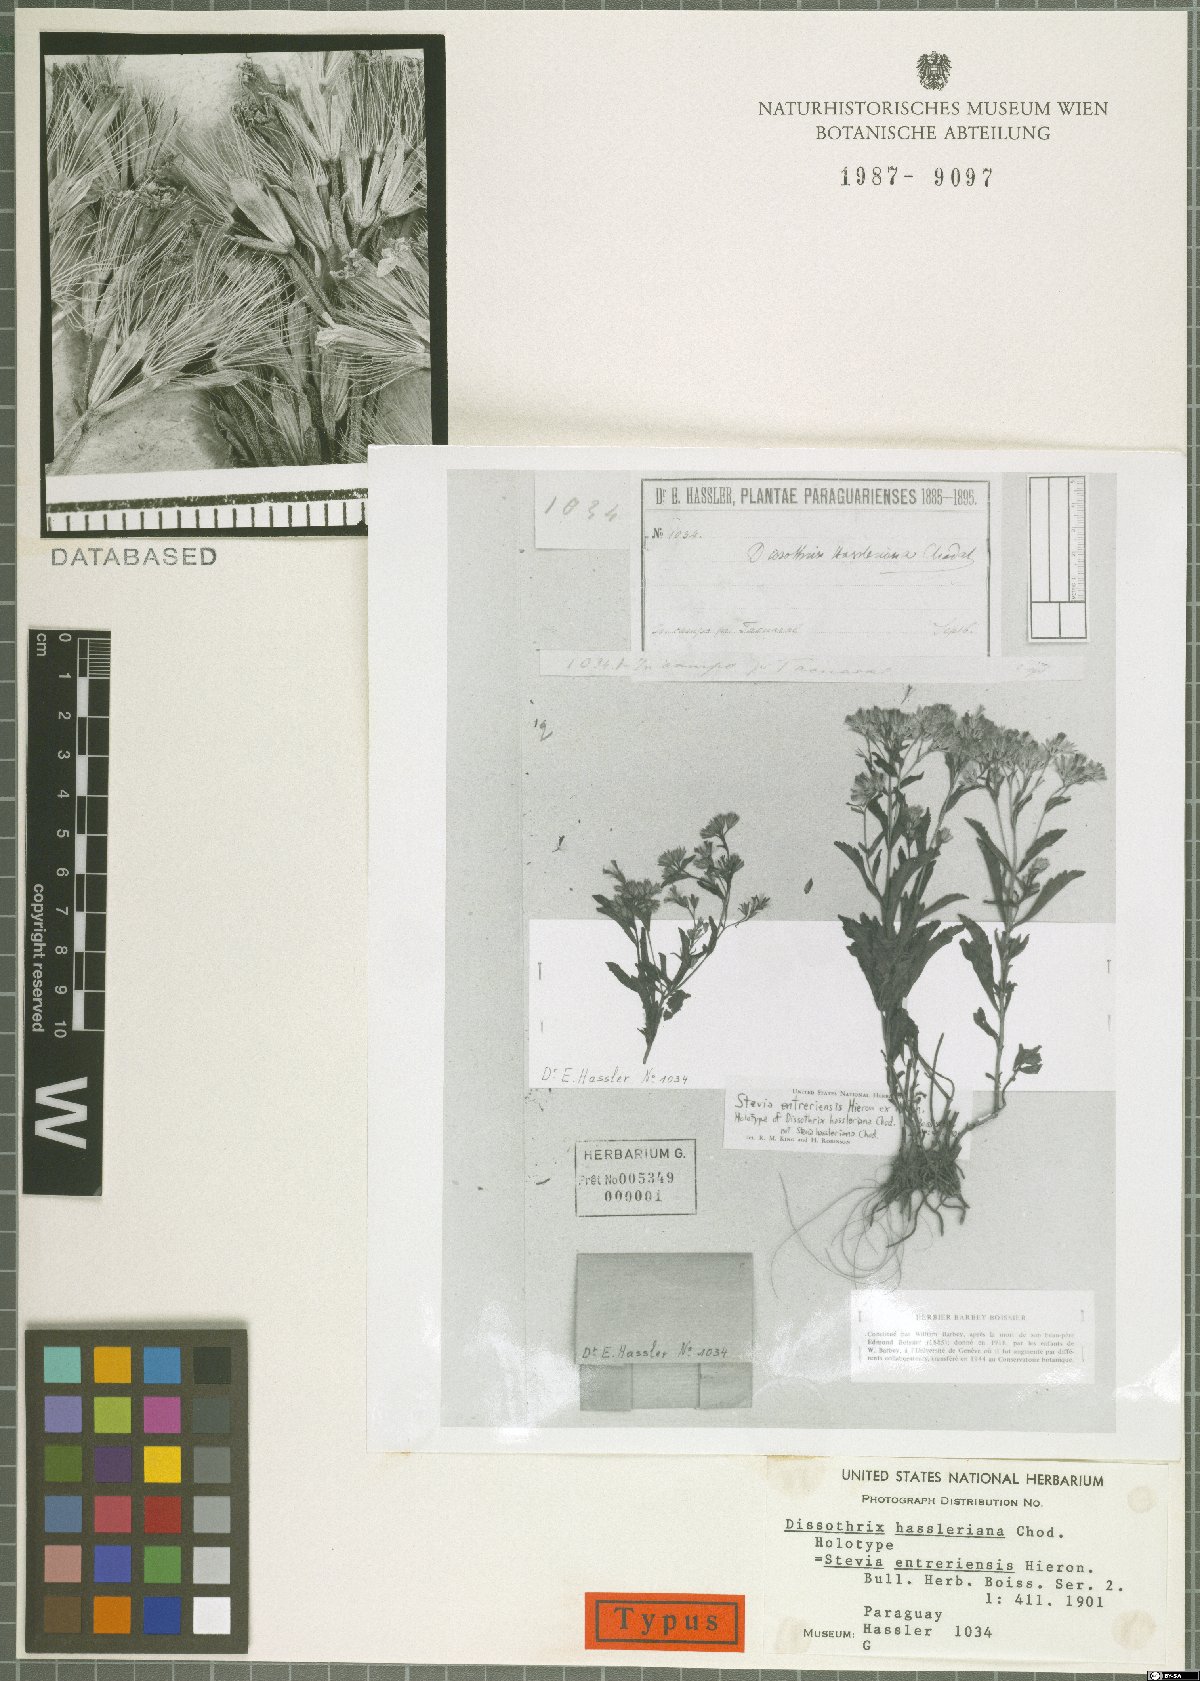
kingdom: Plantae
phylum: Tracheophyta
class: Magnoliopsida
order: Asterales
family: Asteraceae
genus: Stevia
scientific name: Stevia entreriensis
